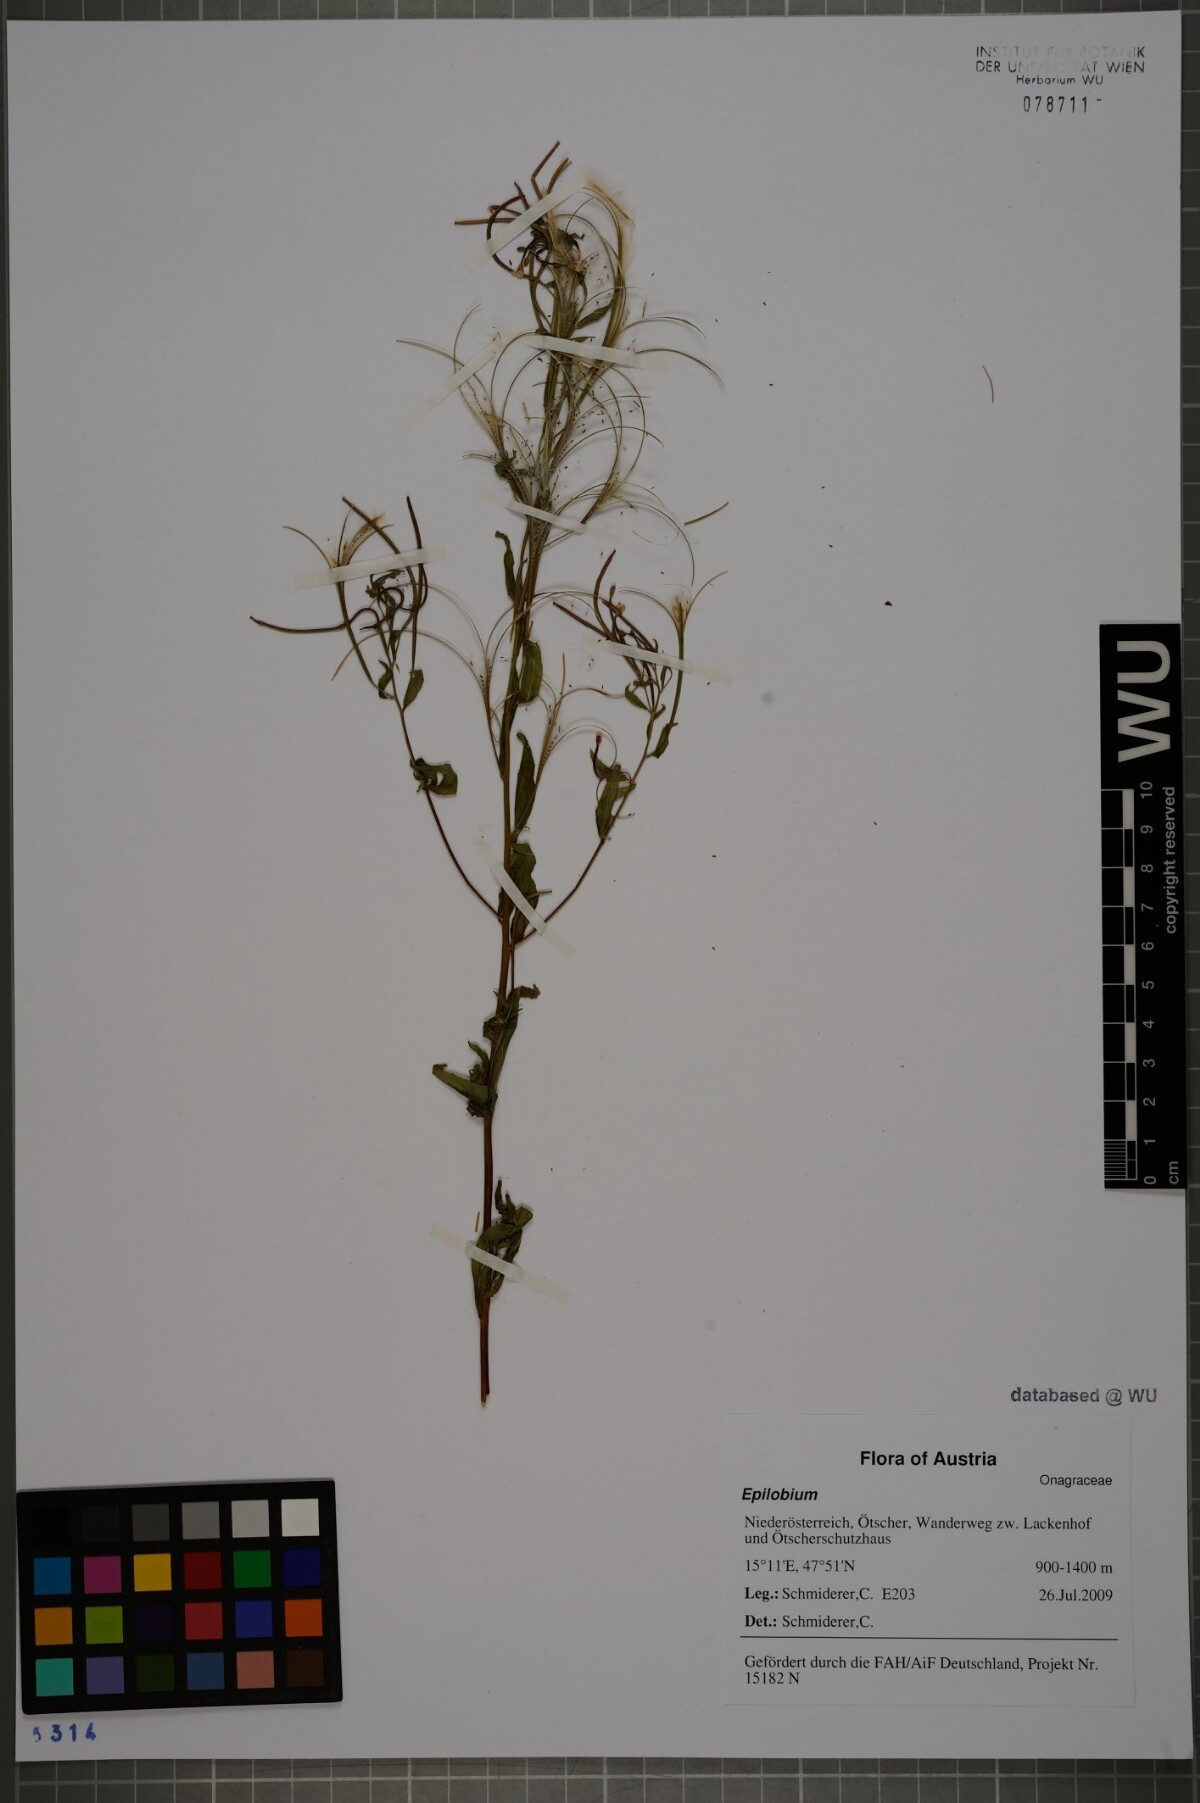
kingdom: Plantae
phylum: Tracheophyta
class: Magnoliopsida
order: Myrtales
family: Onagraceae
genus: Epilobium
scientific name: Epilobium ciliatum
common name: American willowherb
